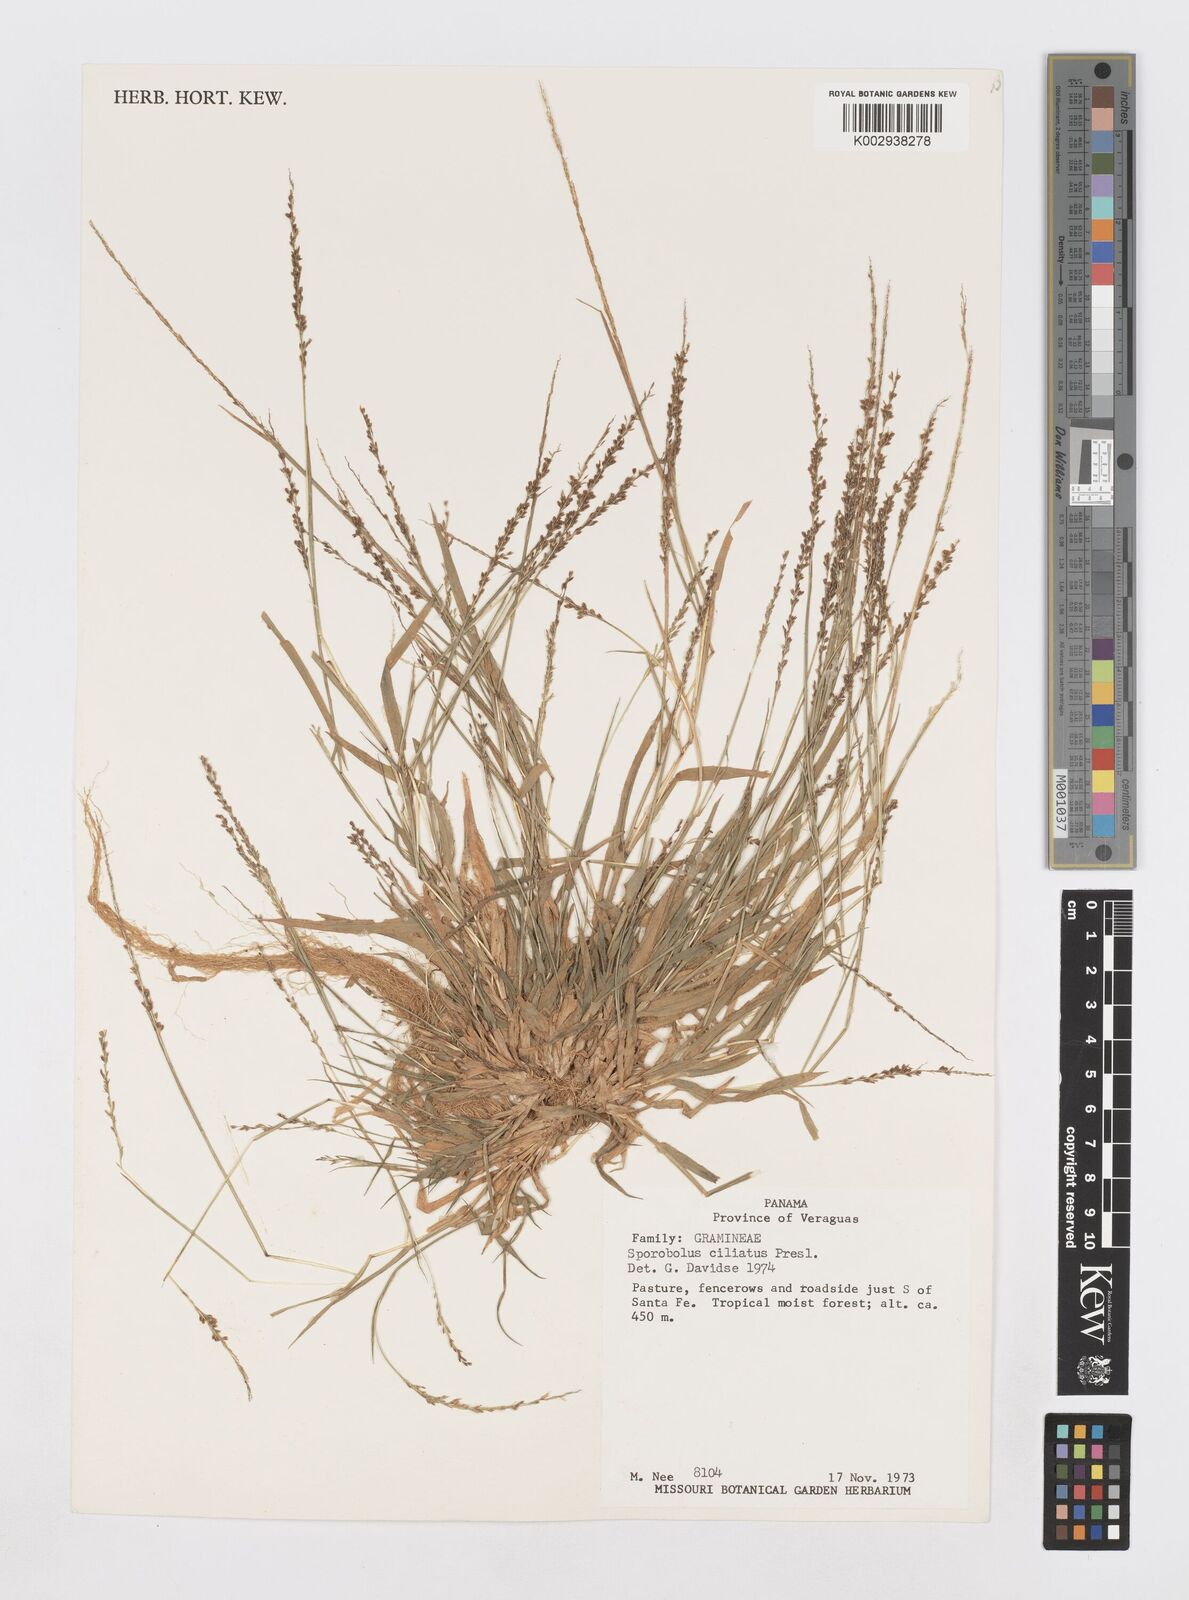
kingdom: Plantae
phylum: Tracheophyta
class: Liliopsida
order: Poales
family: Poaceae
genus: Sporobolus
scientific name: Sporobolus pilifer
